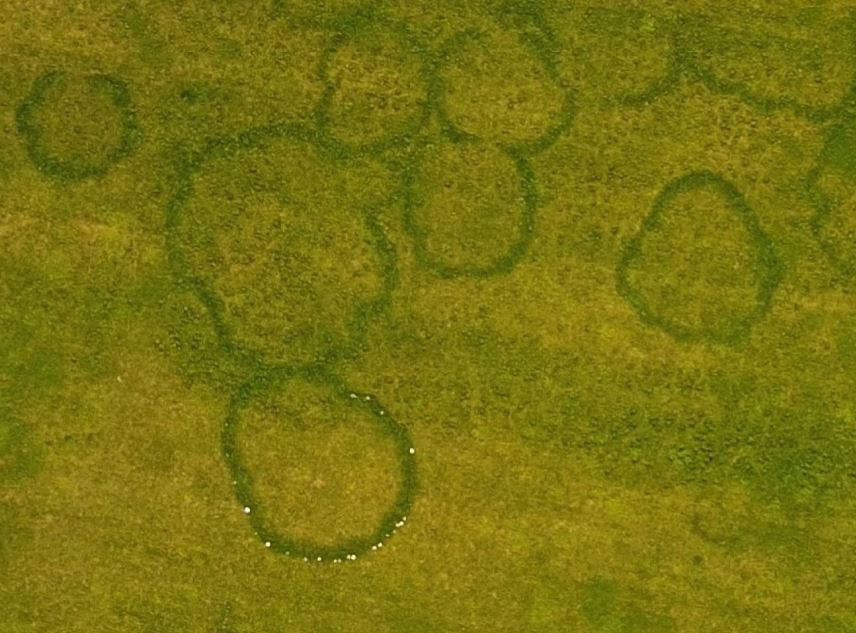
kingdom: Fungi
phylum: Basidiomycota
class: Agaricomycetes
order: Agaricales
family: Agaricaceae
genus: Agaricus
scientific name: Agaricus campestris
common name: mark-champignon
